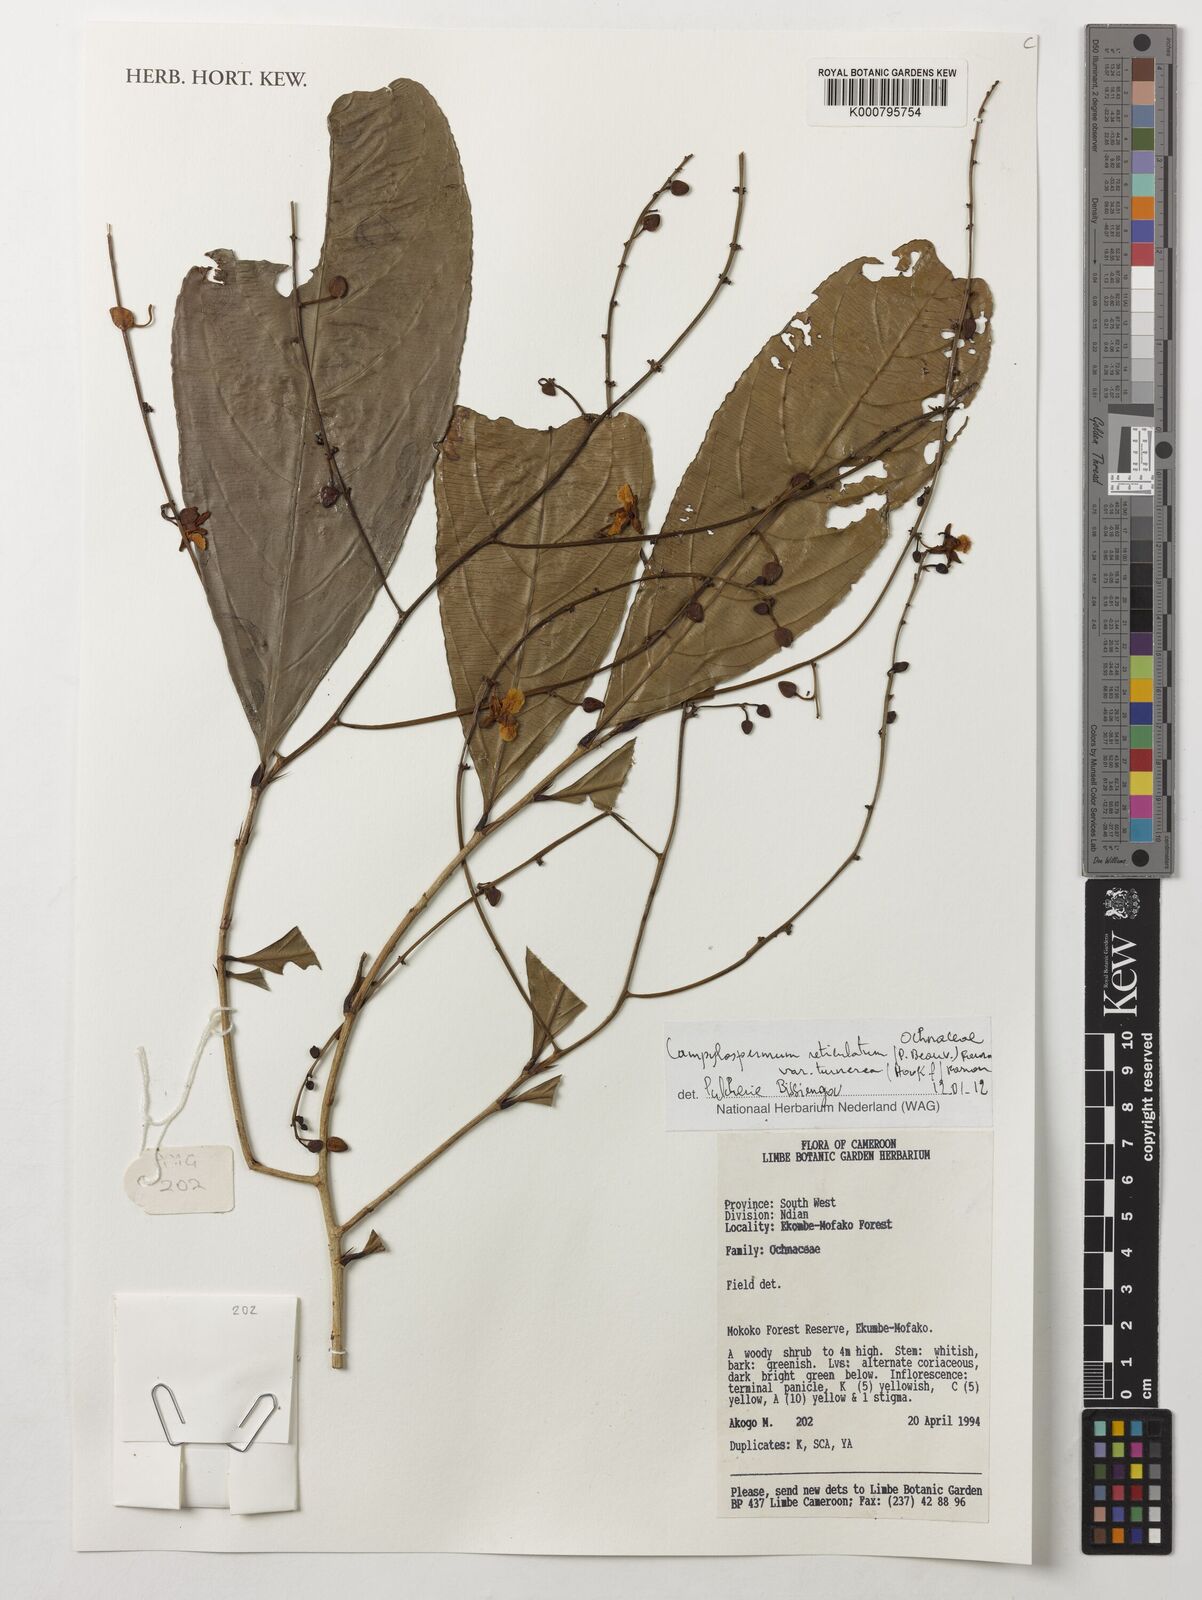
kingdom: Plantae
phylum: Tracheophyta
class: Magnoliopsida
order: Malpighiales
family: Ochnaceae
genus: Campylospermum
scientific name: Campylospermum reticulatum
